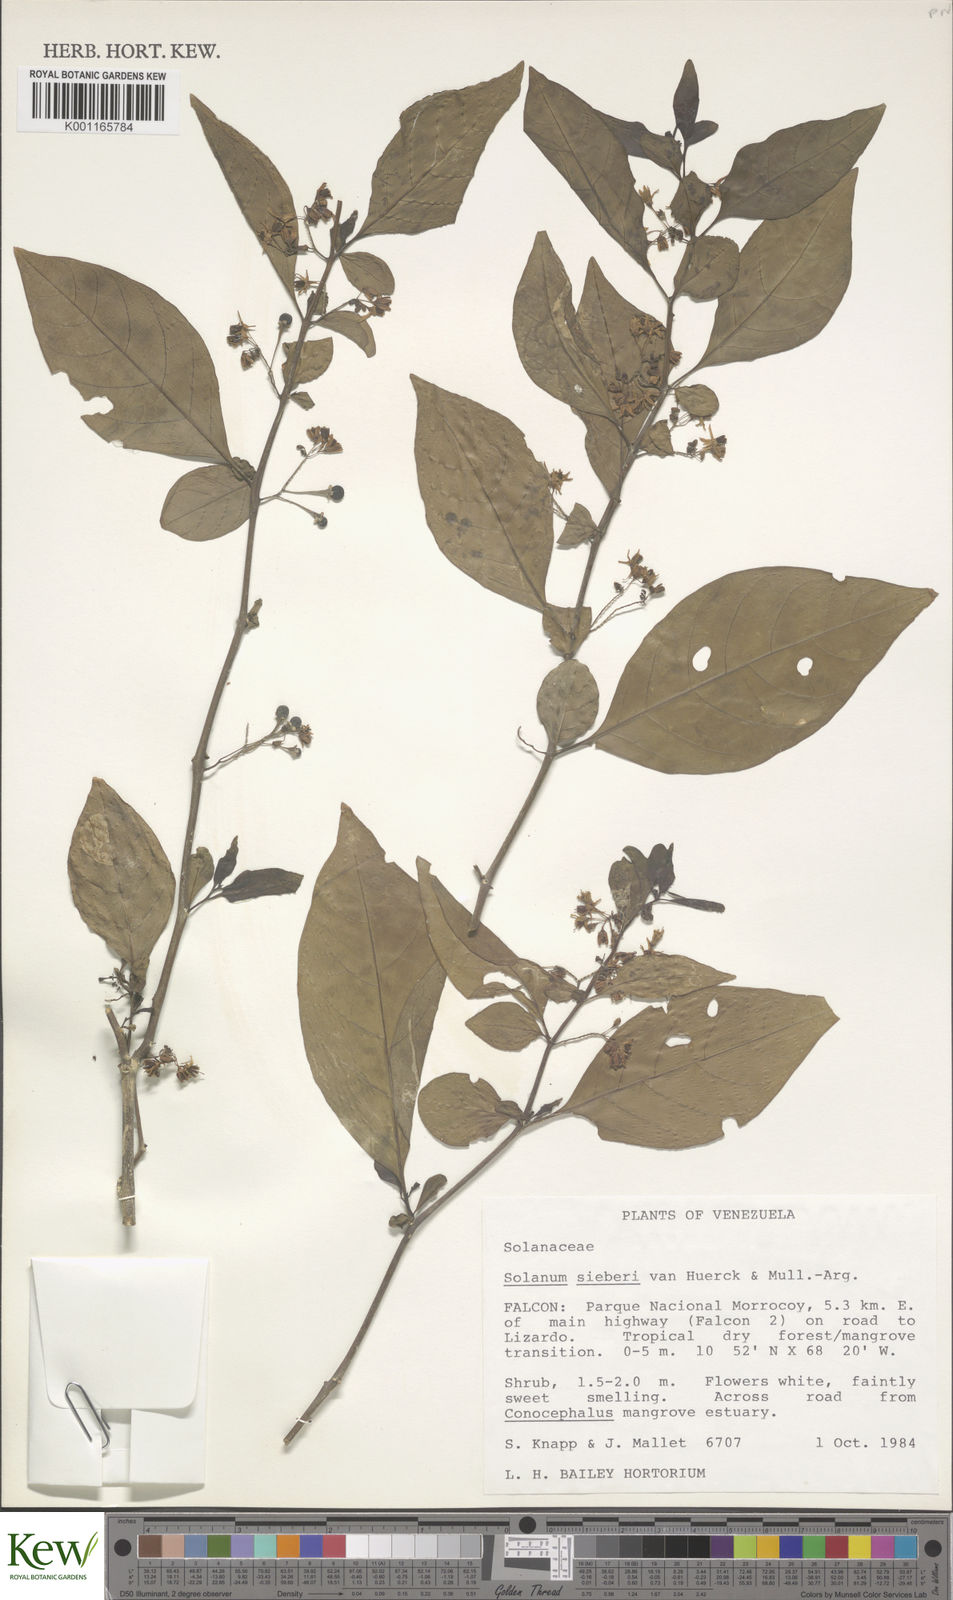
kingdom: Plantae
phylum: Tracheophyta
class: Magnoliopsida
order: Solanales
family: Solanaceae
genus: Solanum
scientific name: Solanum sieberi
